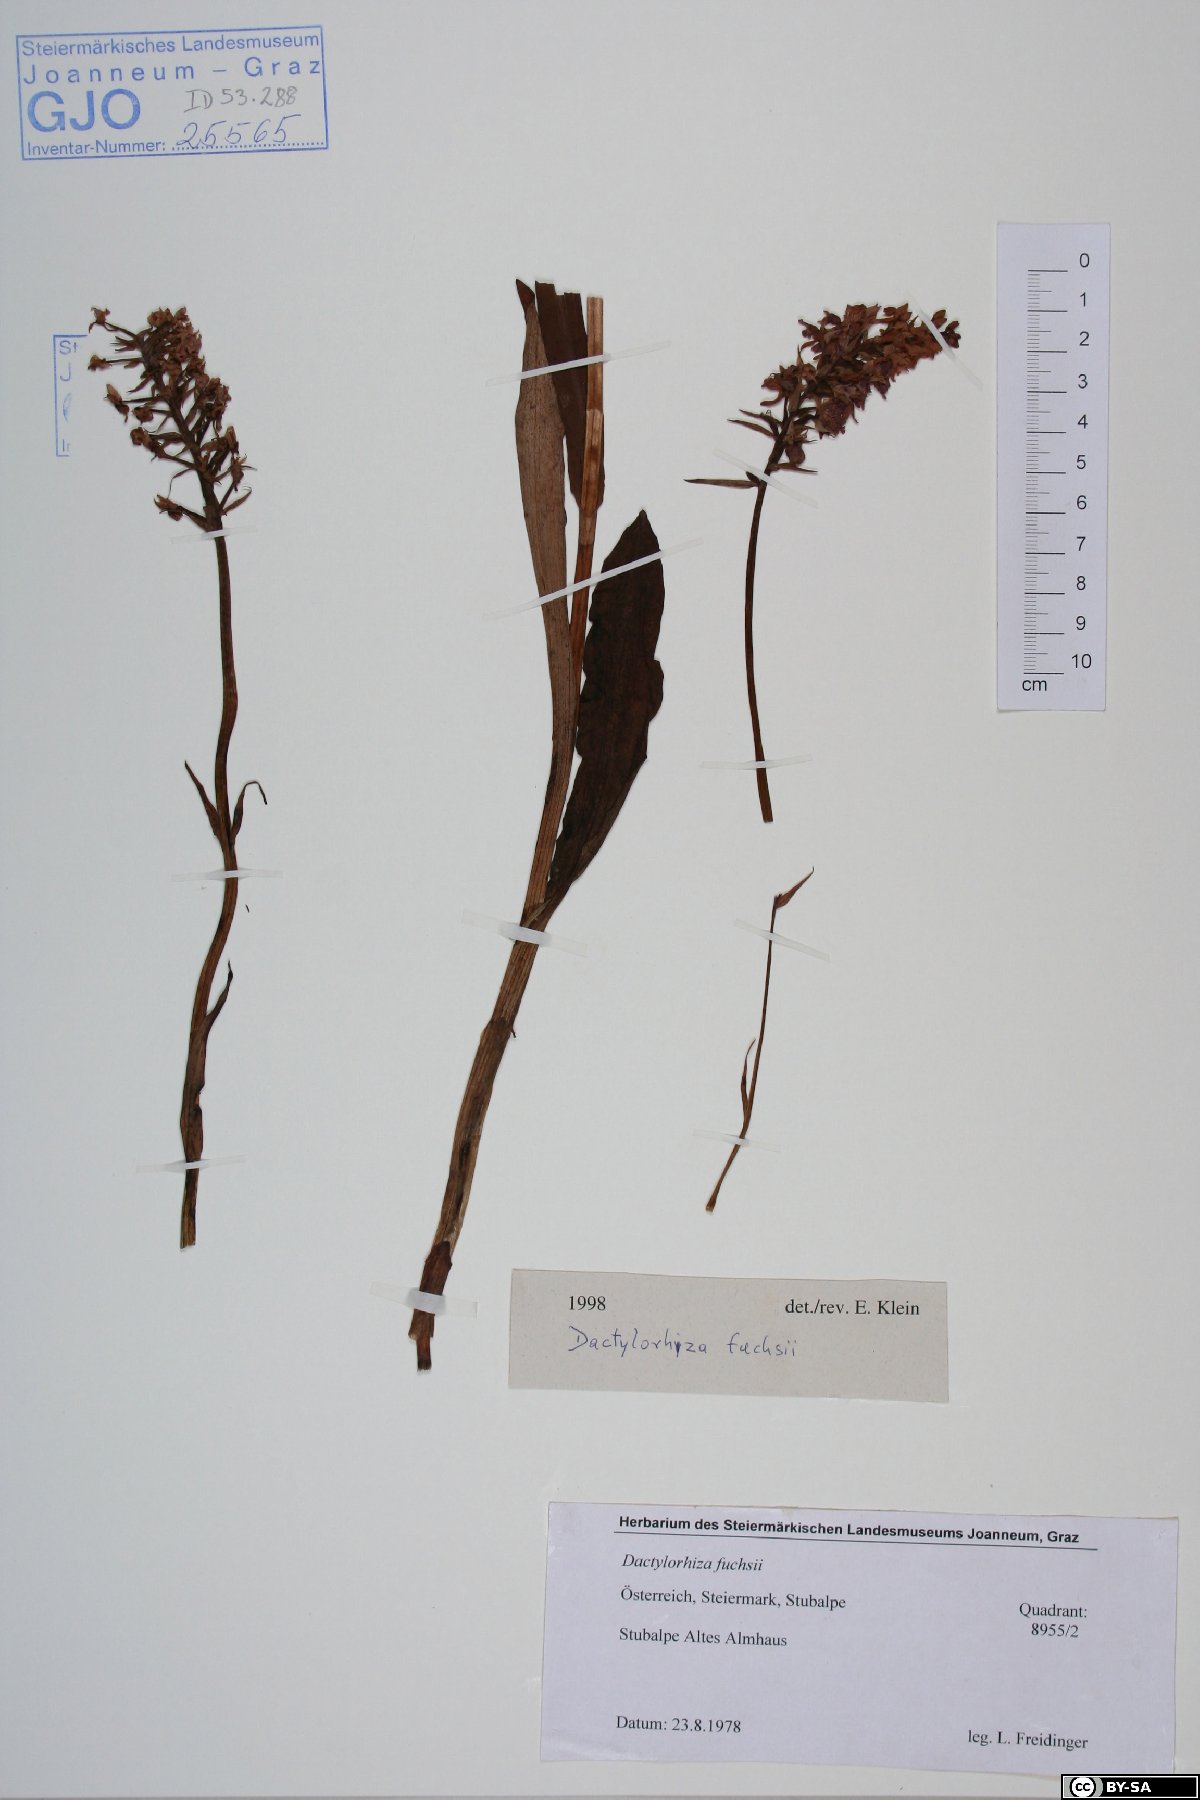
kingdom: Plantae
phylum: Tracheophyta
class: Liliopsida
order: Asparagales
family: Orchidaceae
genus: Dactylorhiza
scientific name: Dactylorhiza maculata
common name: Heath spotted-orchid
